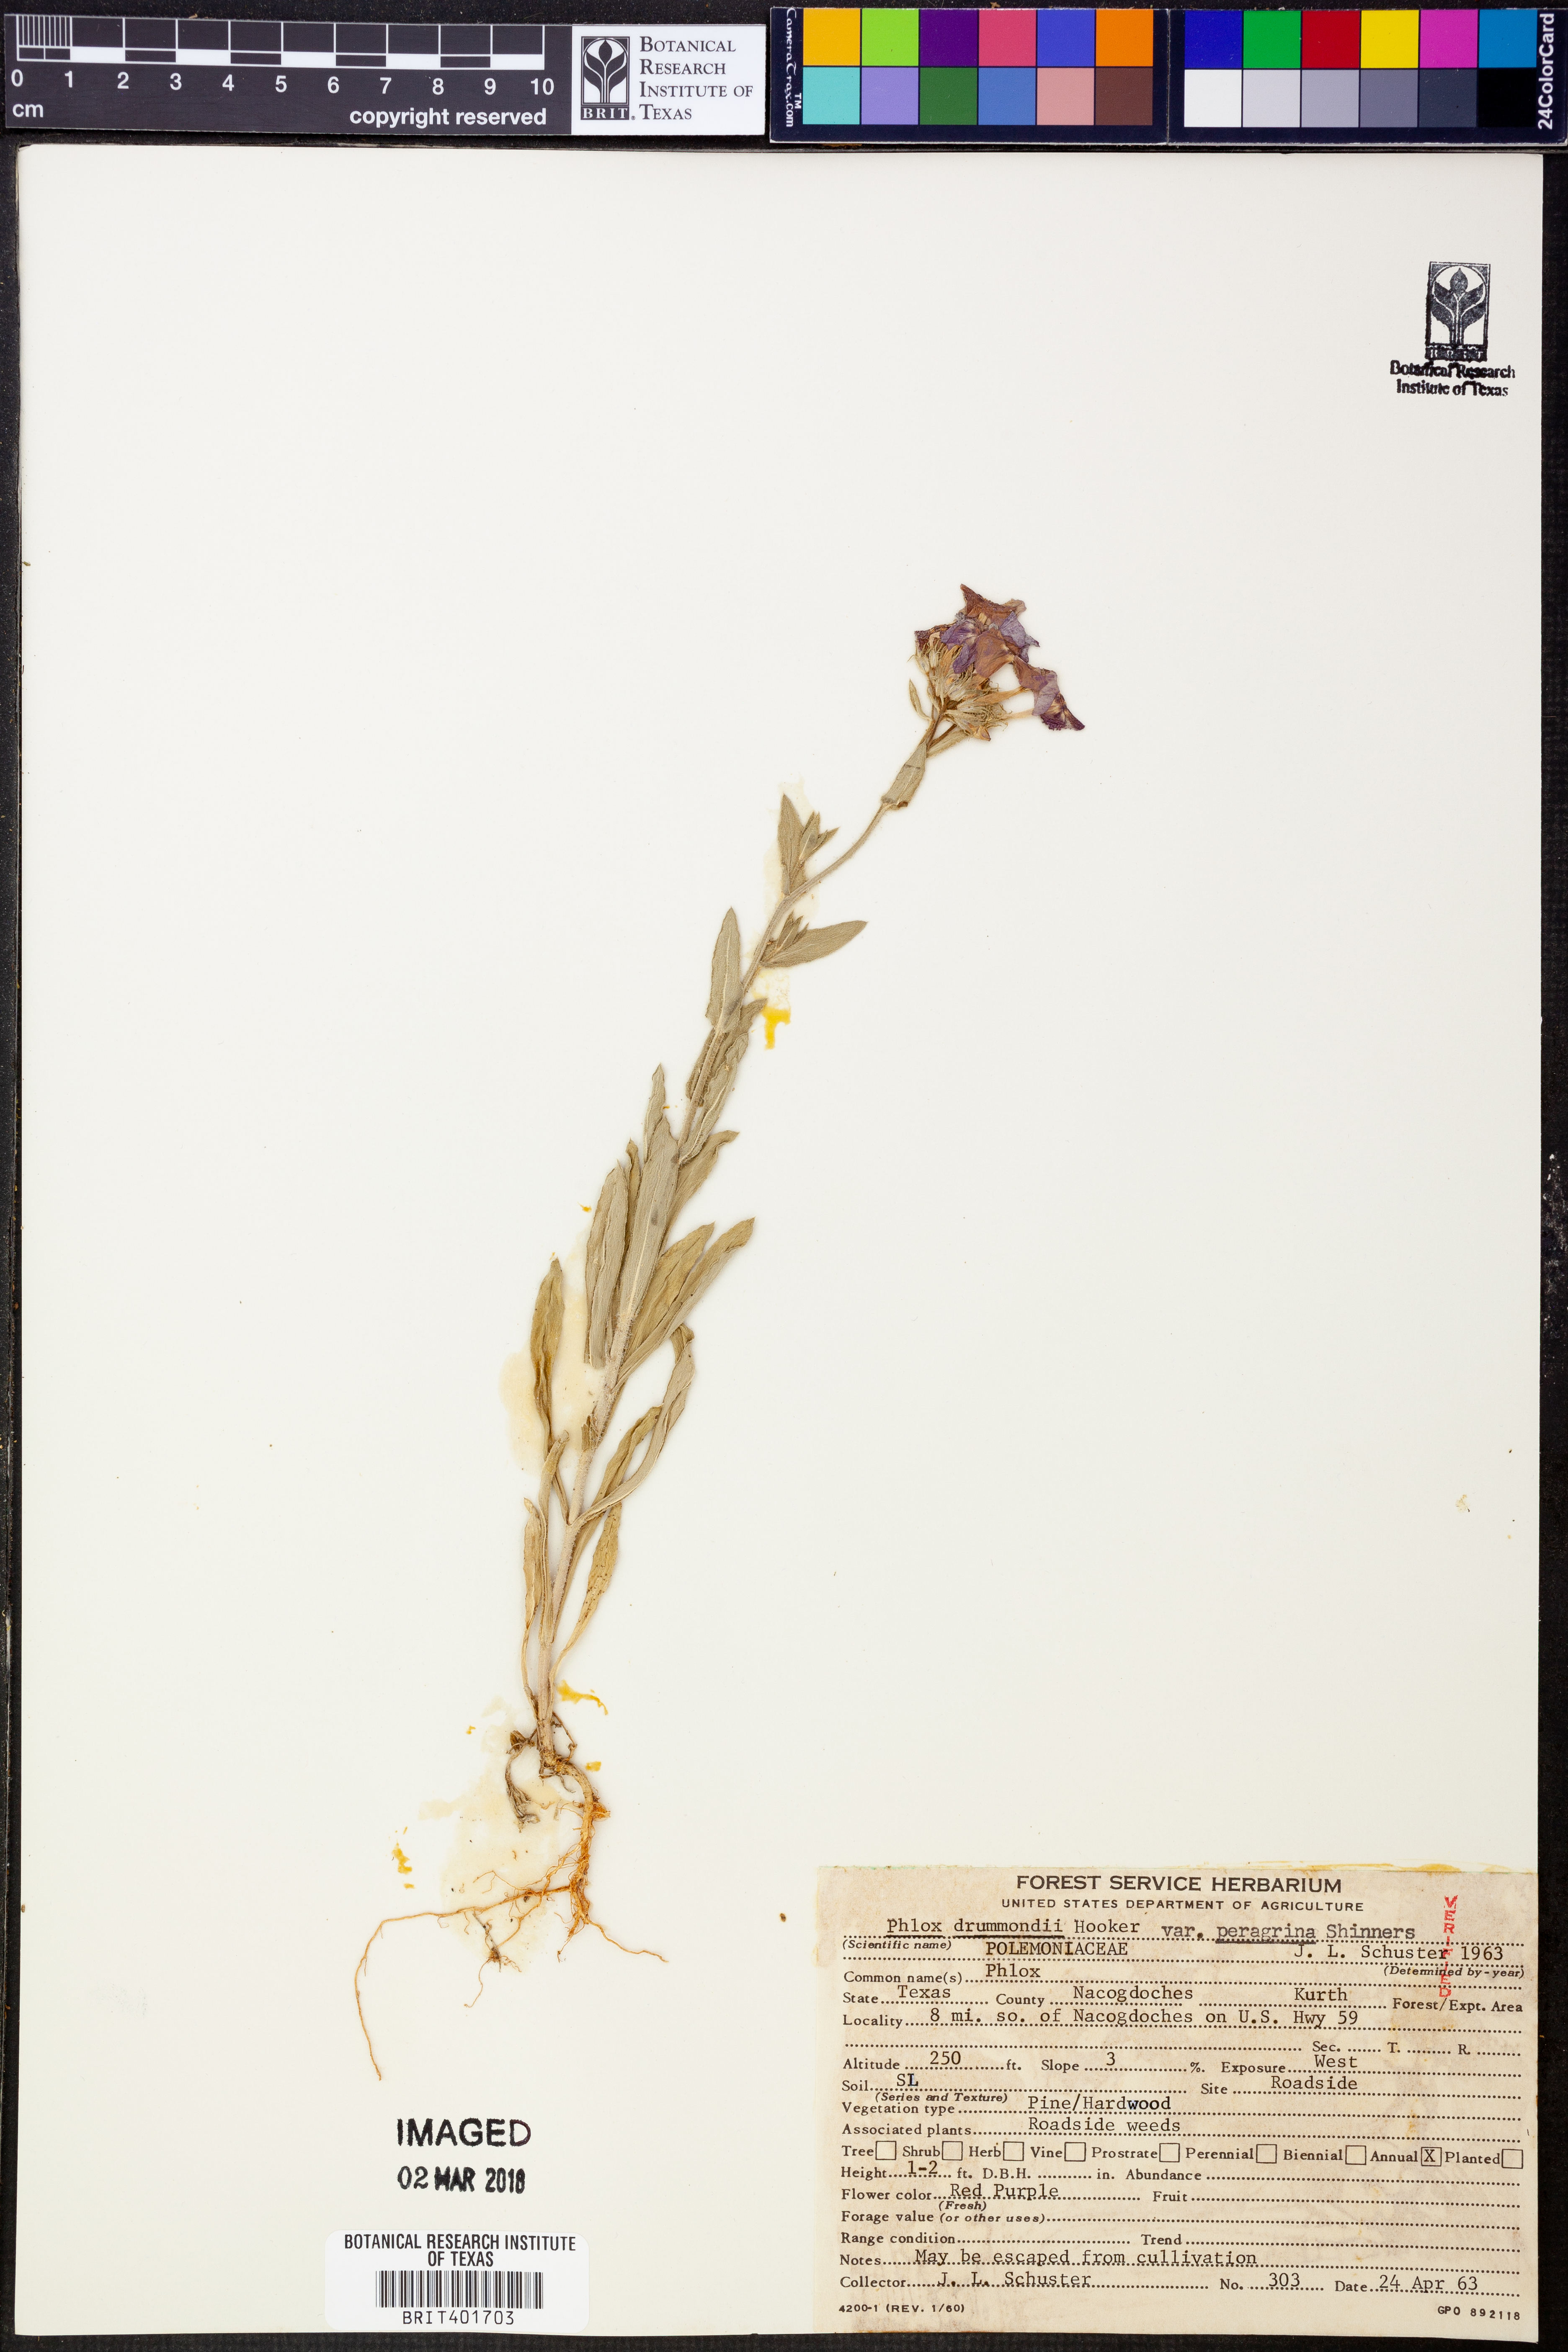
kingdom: Plantae
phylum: Tracheophyta
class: Magnoliopsida
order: Ericales
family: Polemoniaceae
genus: Phlox
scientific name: Phlox drummondii
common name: Drummond's phlox
